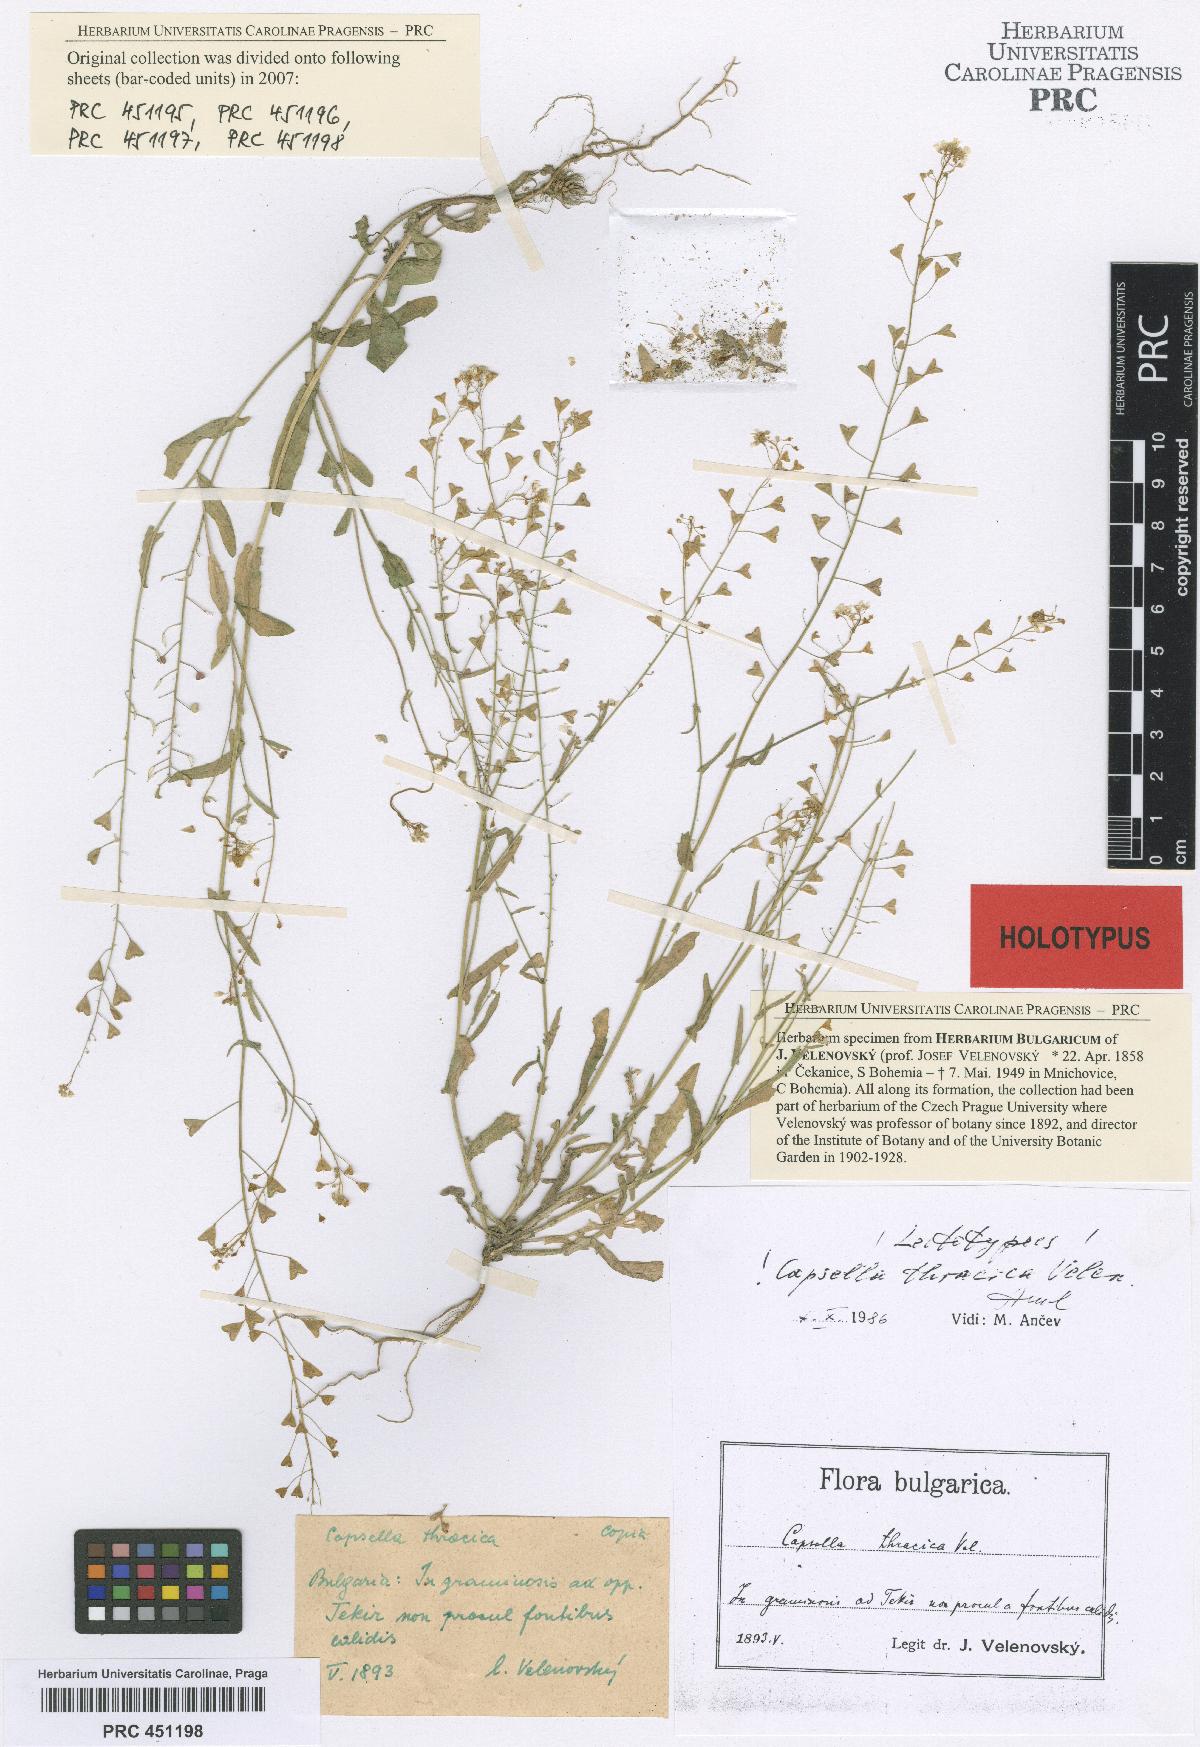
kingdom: Plantae
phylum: Tracheophyta
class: Magnoliopsida
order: Brassicales
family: Brassicaceae
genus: Capsella
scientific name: Capsella thracica
